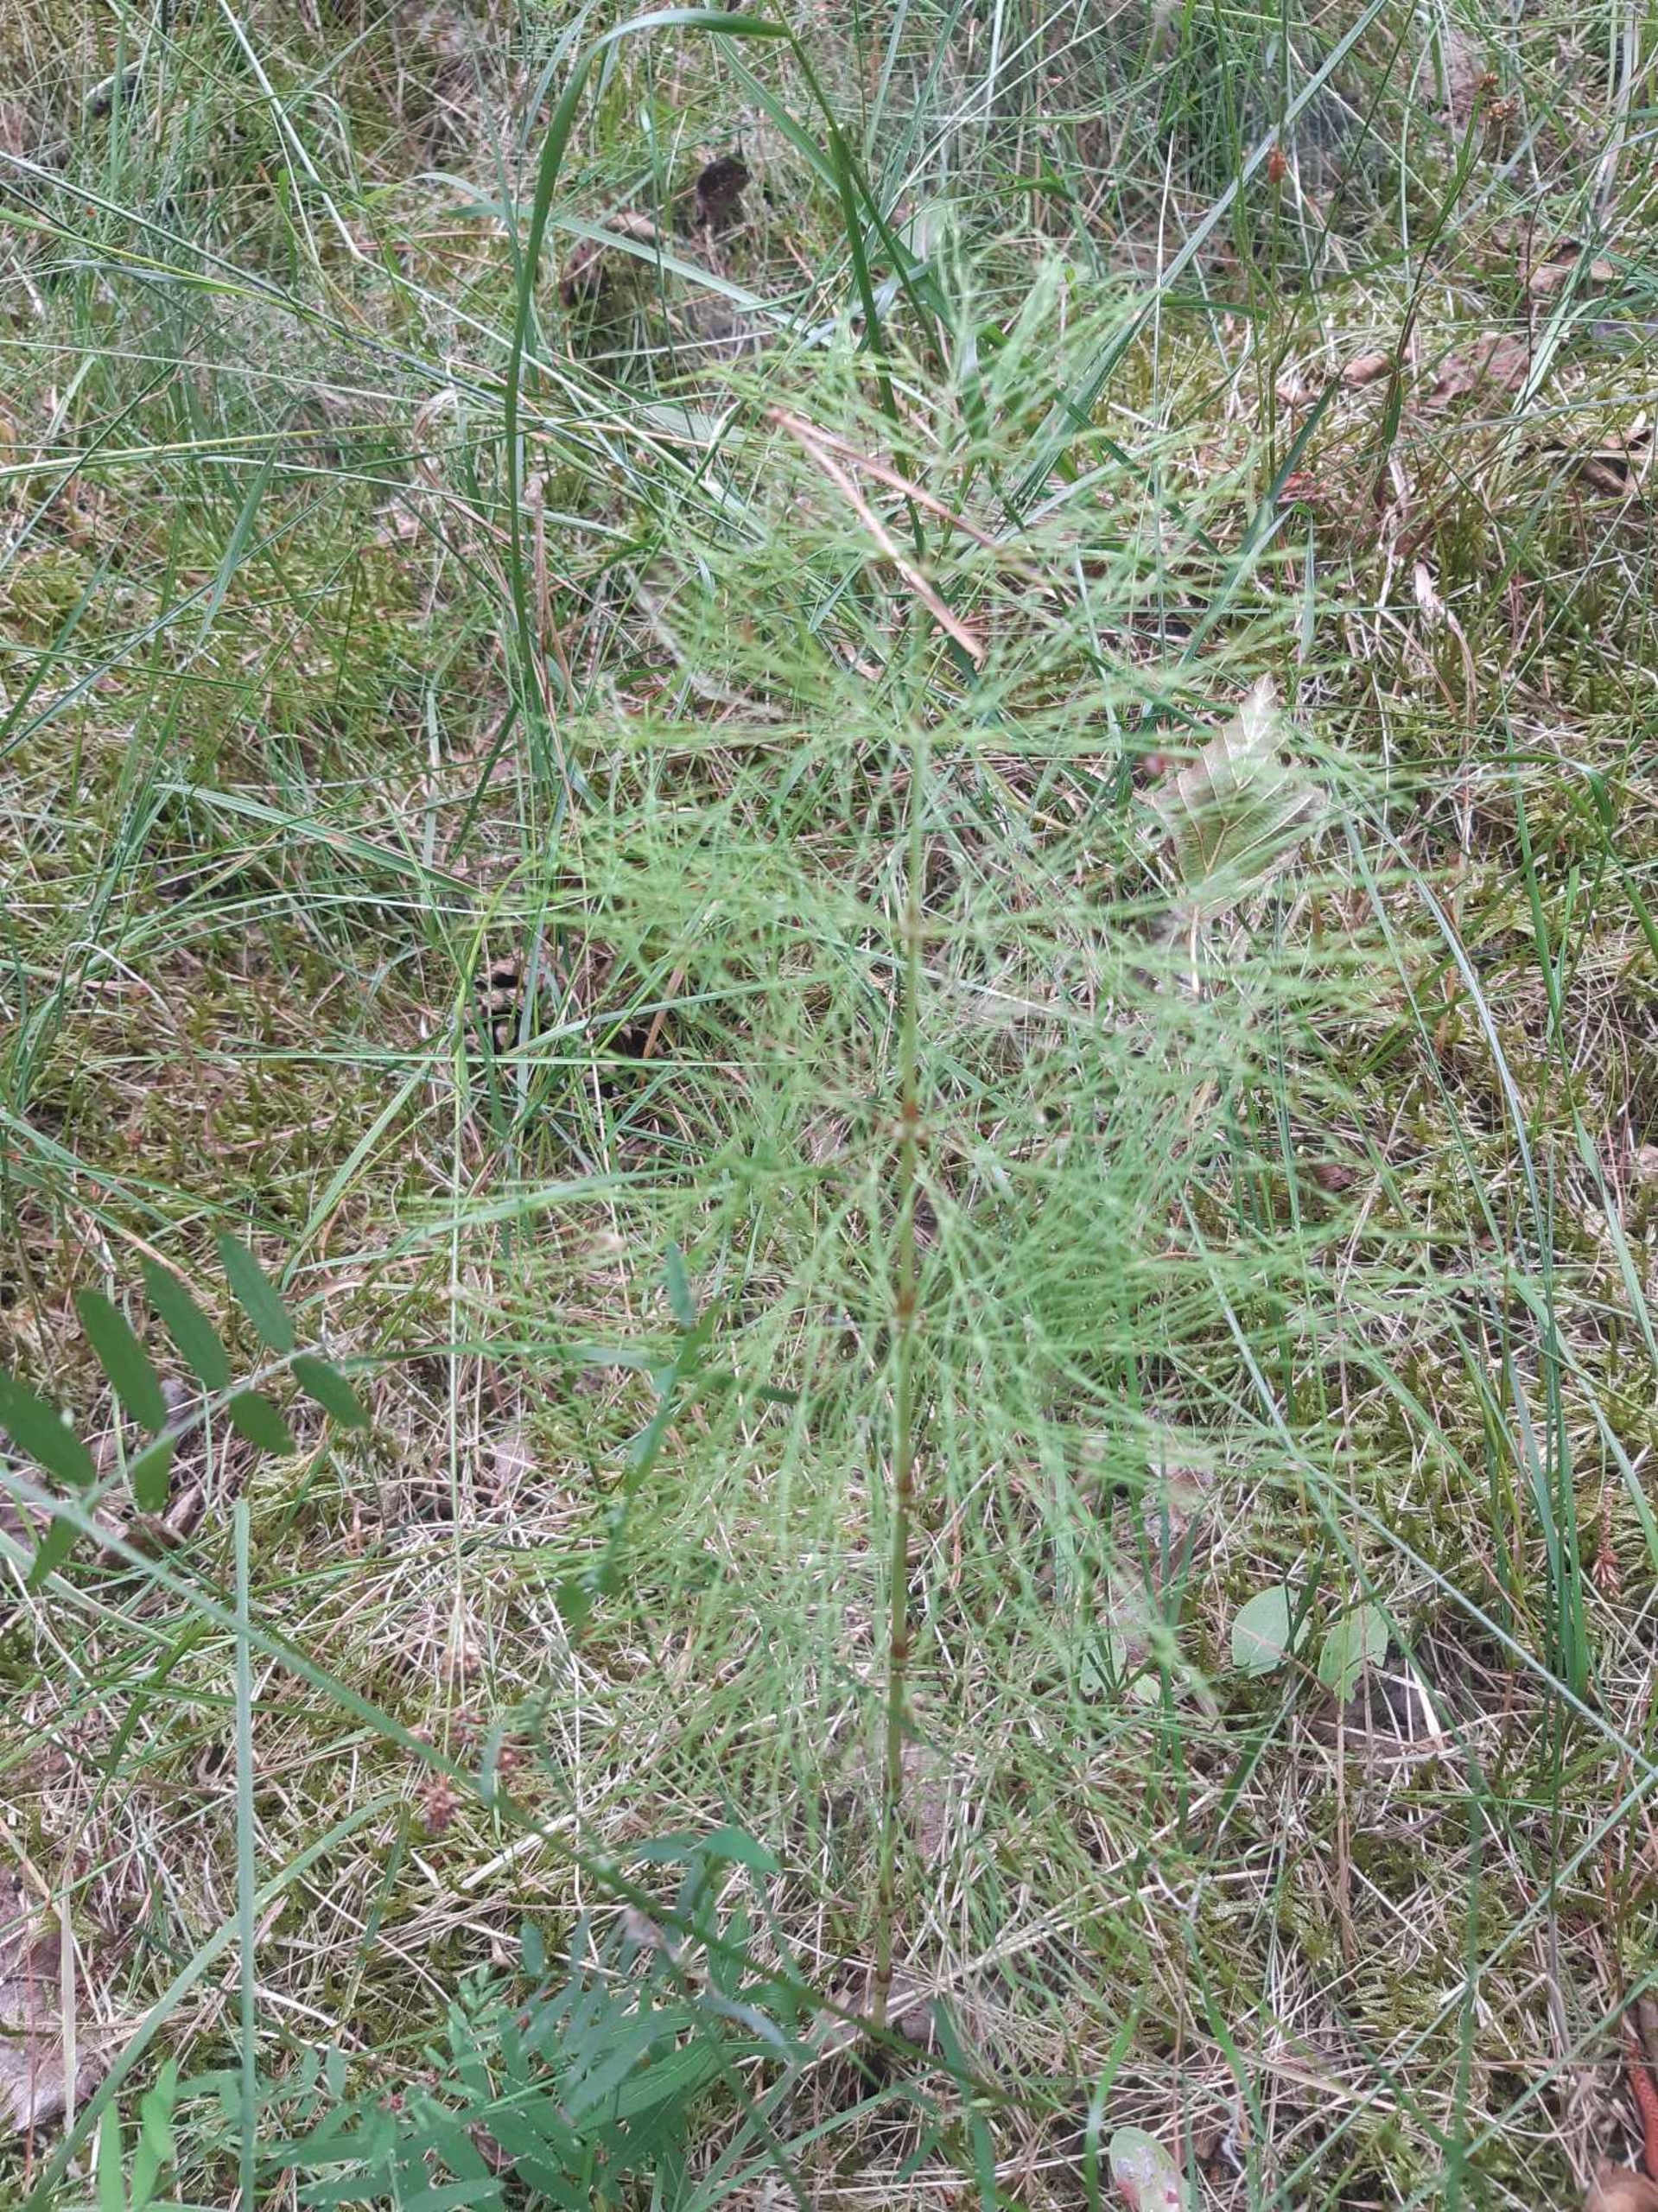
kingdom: Plantae
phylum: Tracheophyta
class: Polypodiopsida
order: Equisetales
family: Equisetaceae
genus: Equisetum
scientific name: Equisetum sylvaticum
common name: Skov-padderok
